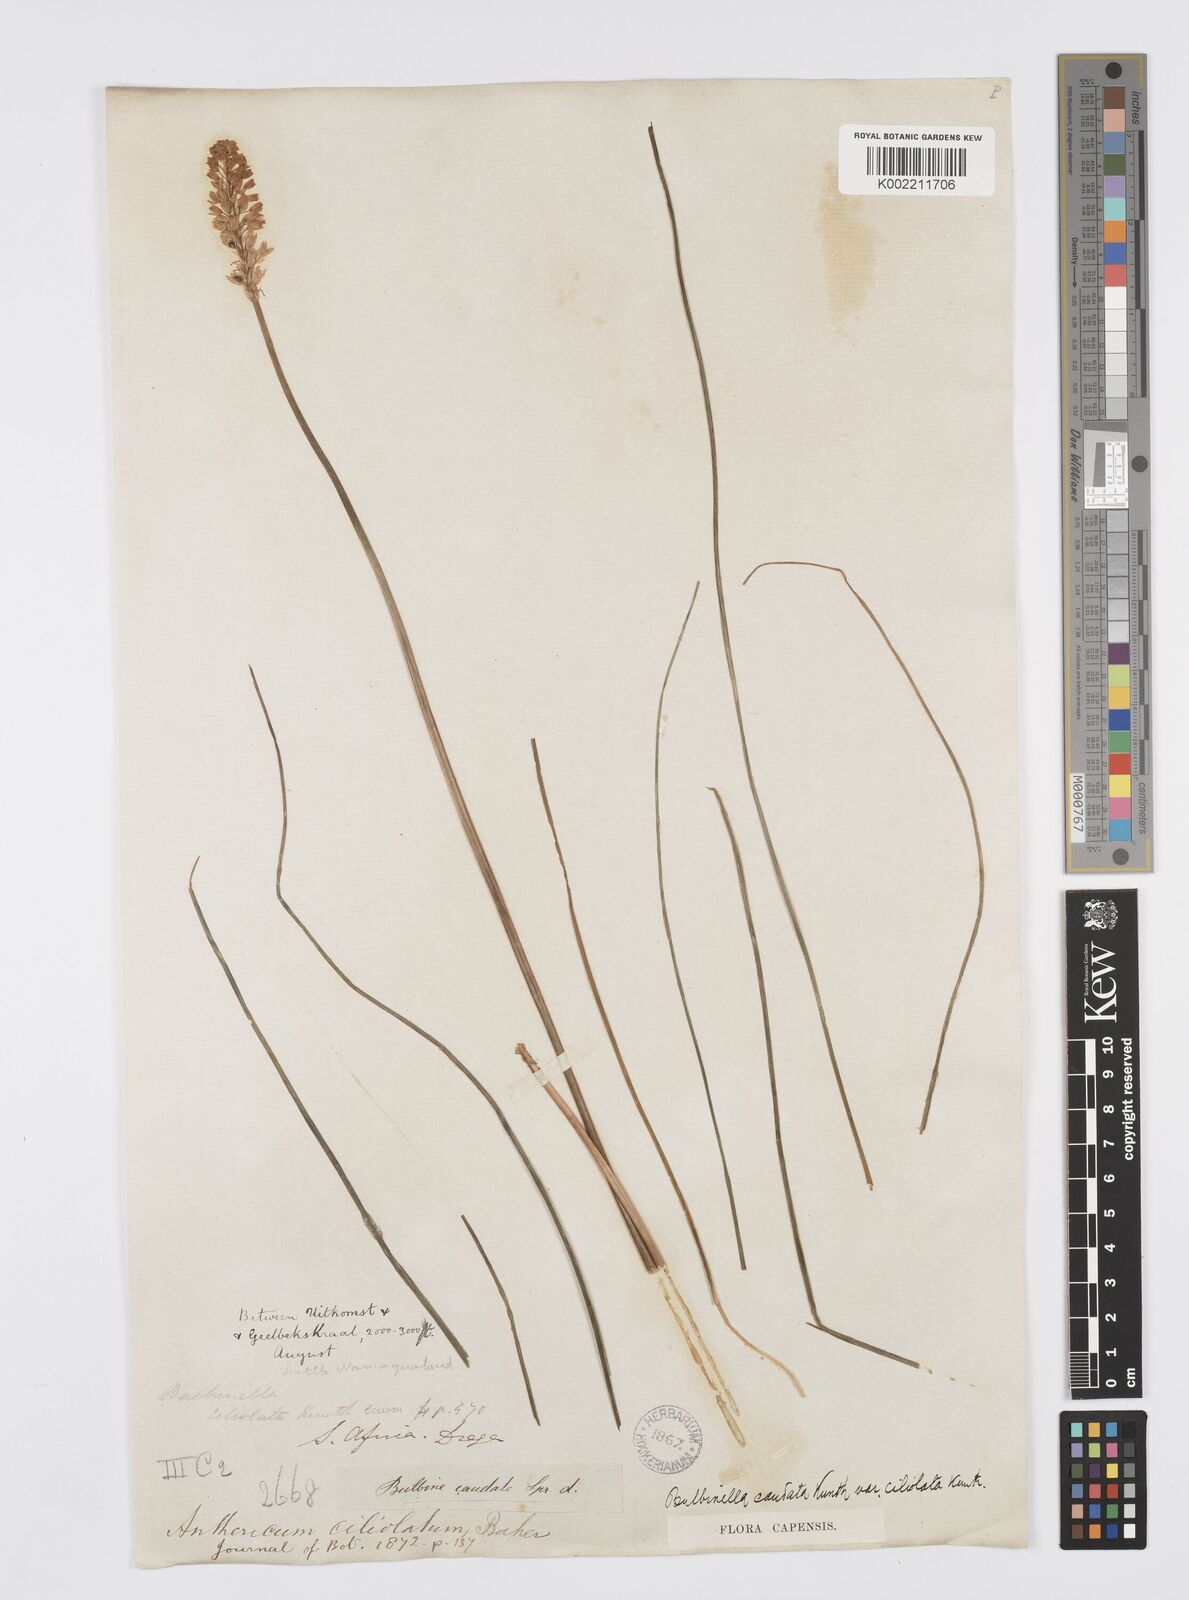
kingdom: Plantae
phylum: Tracheophyta
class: Liliopsida
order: Asparagales
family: Asphodelaceae
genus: Bulbinella
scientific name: Bulbinella ciliolata
